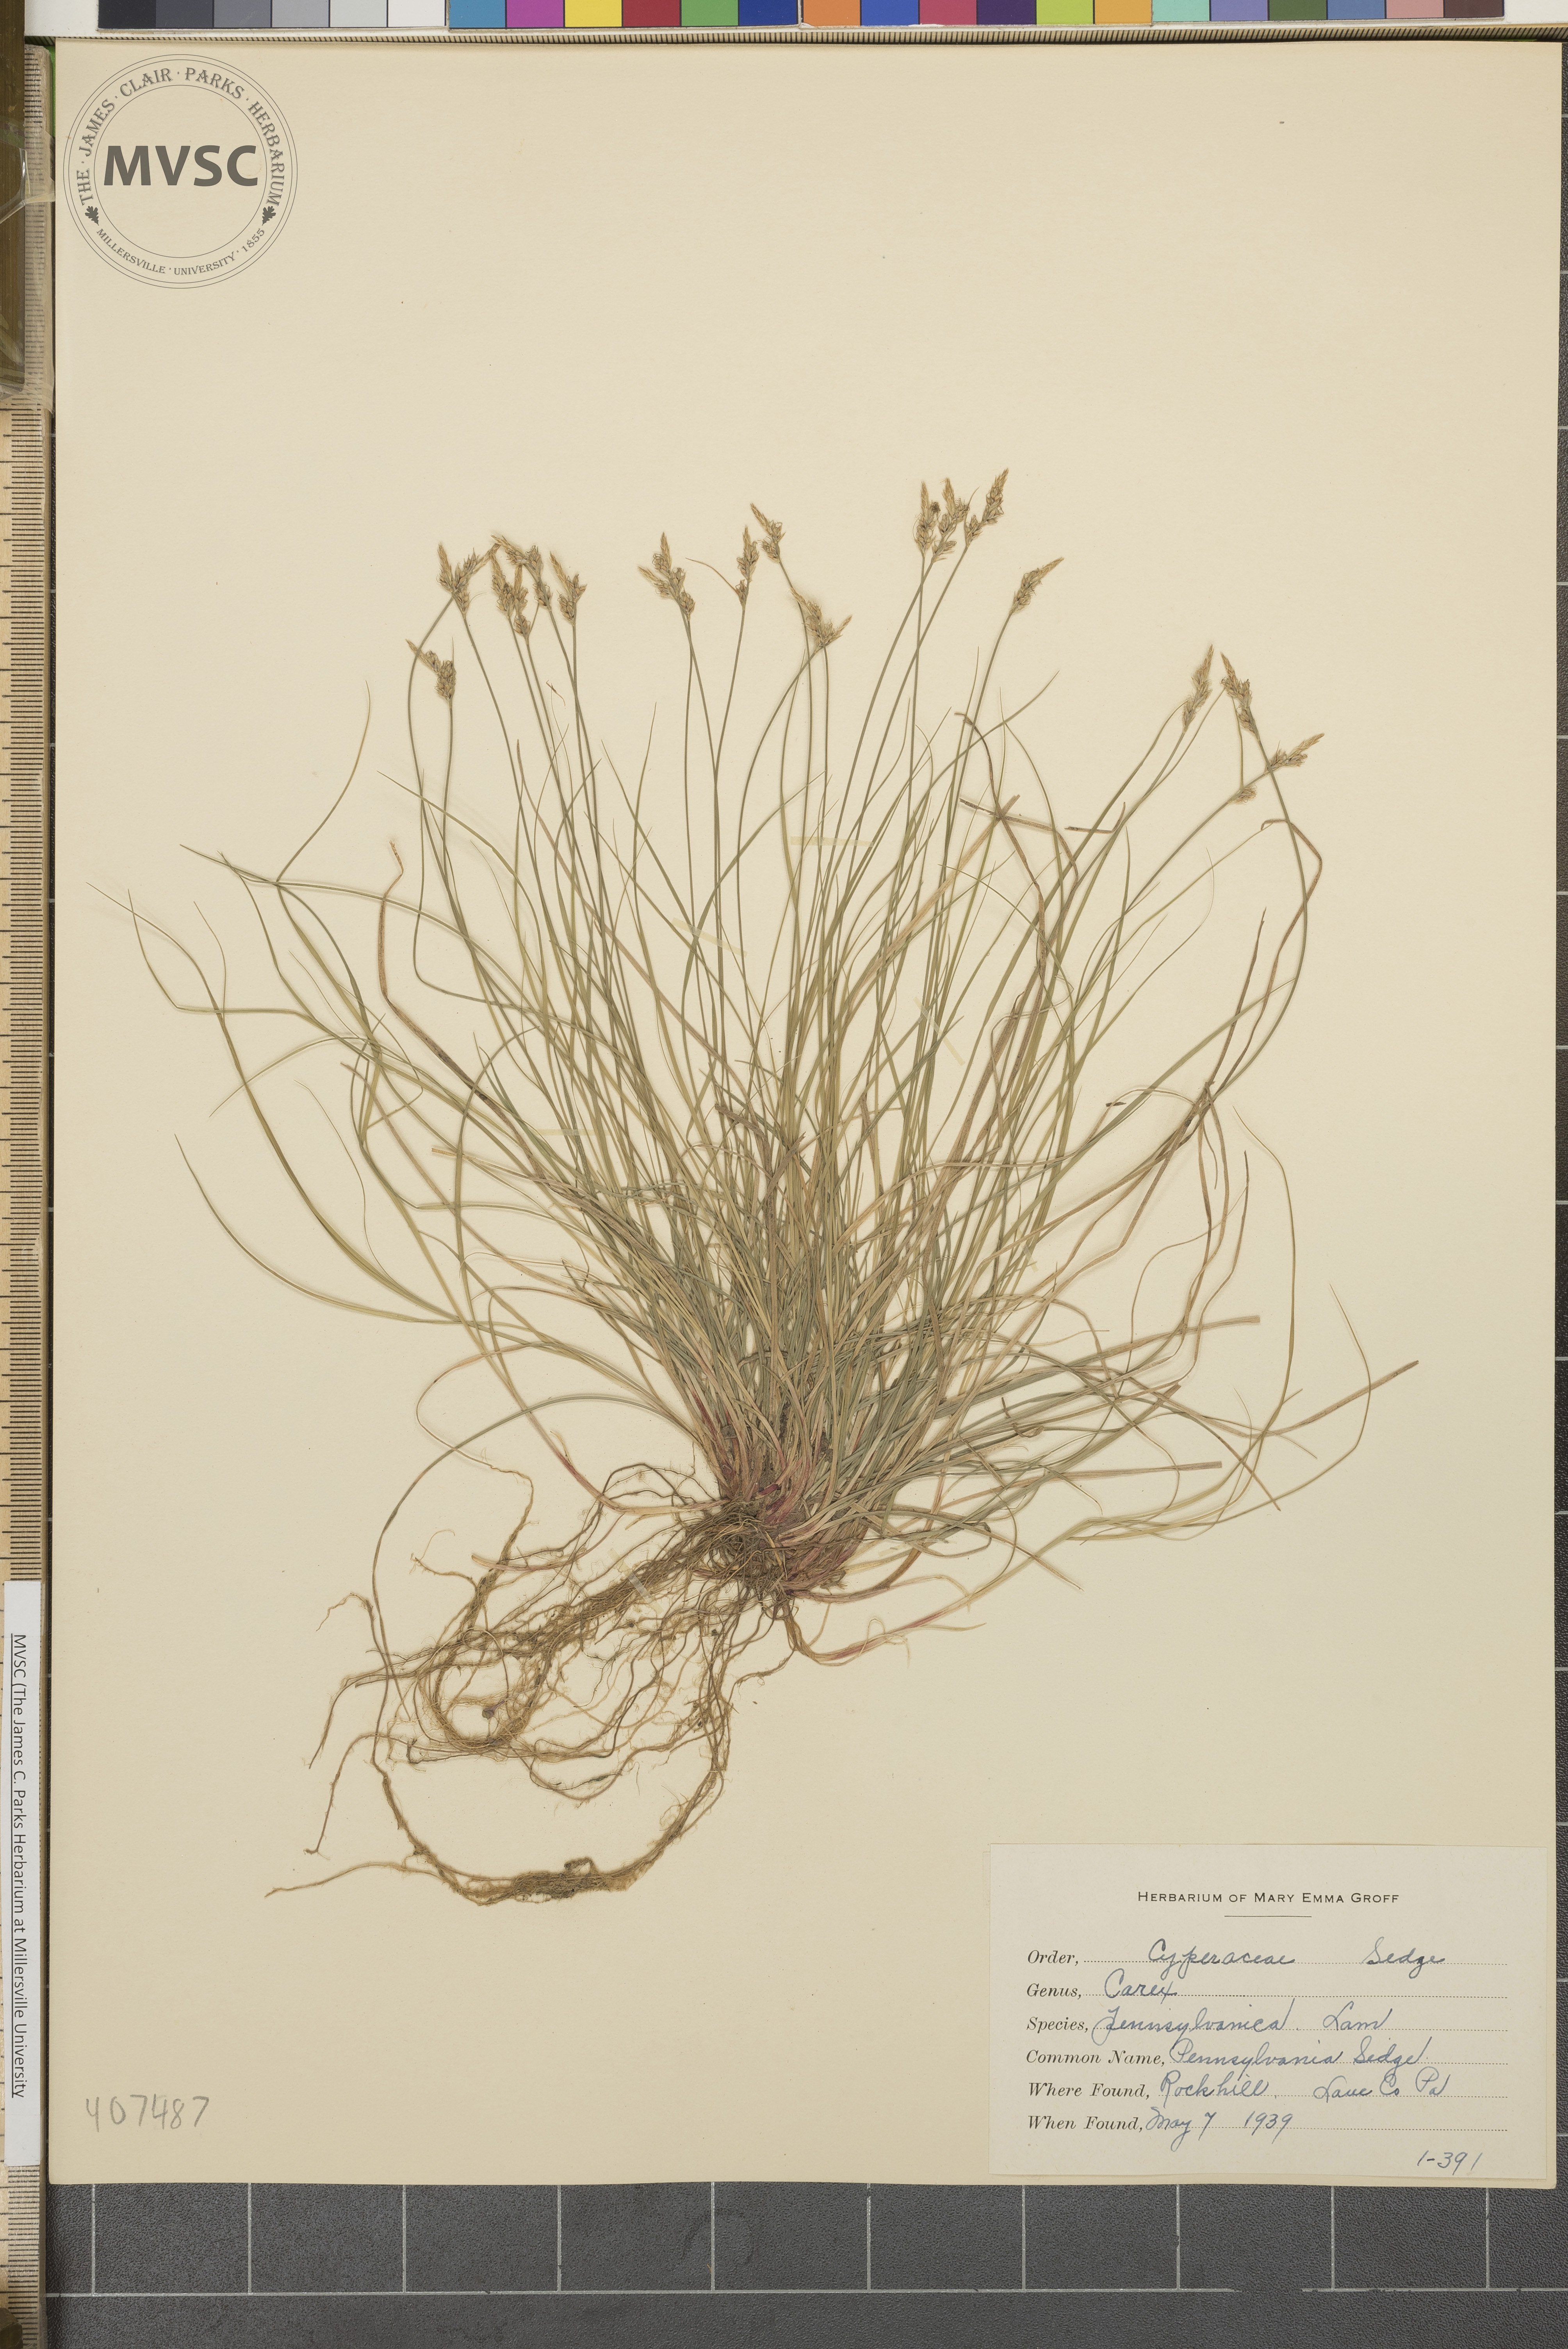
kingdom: Plantae
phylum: Tracheophyta
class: Liliopsida
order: Poales
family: Cyperaceae
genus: Carex
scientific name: Carex pensylvanica
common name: Pennsylvania Sedge
